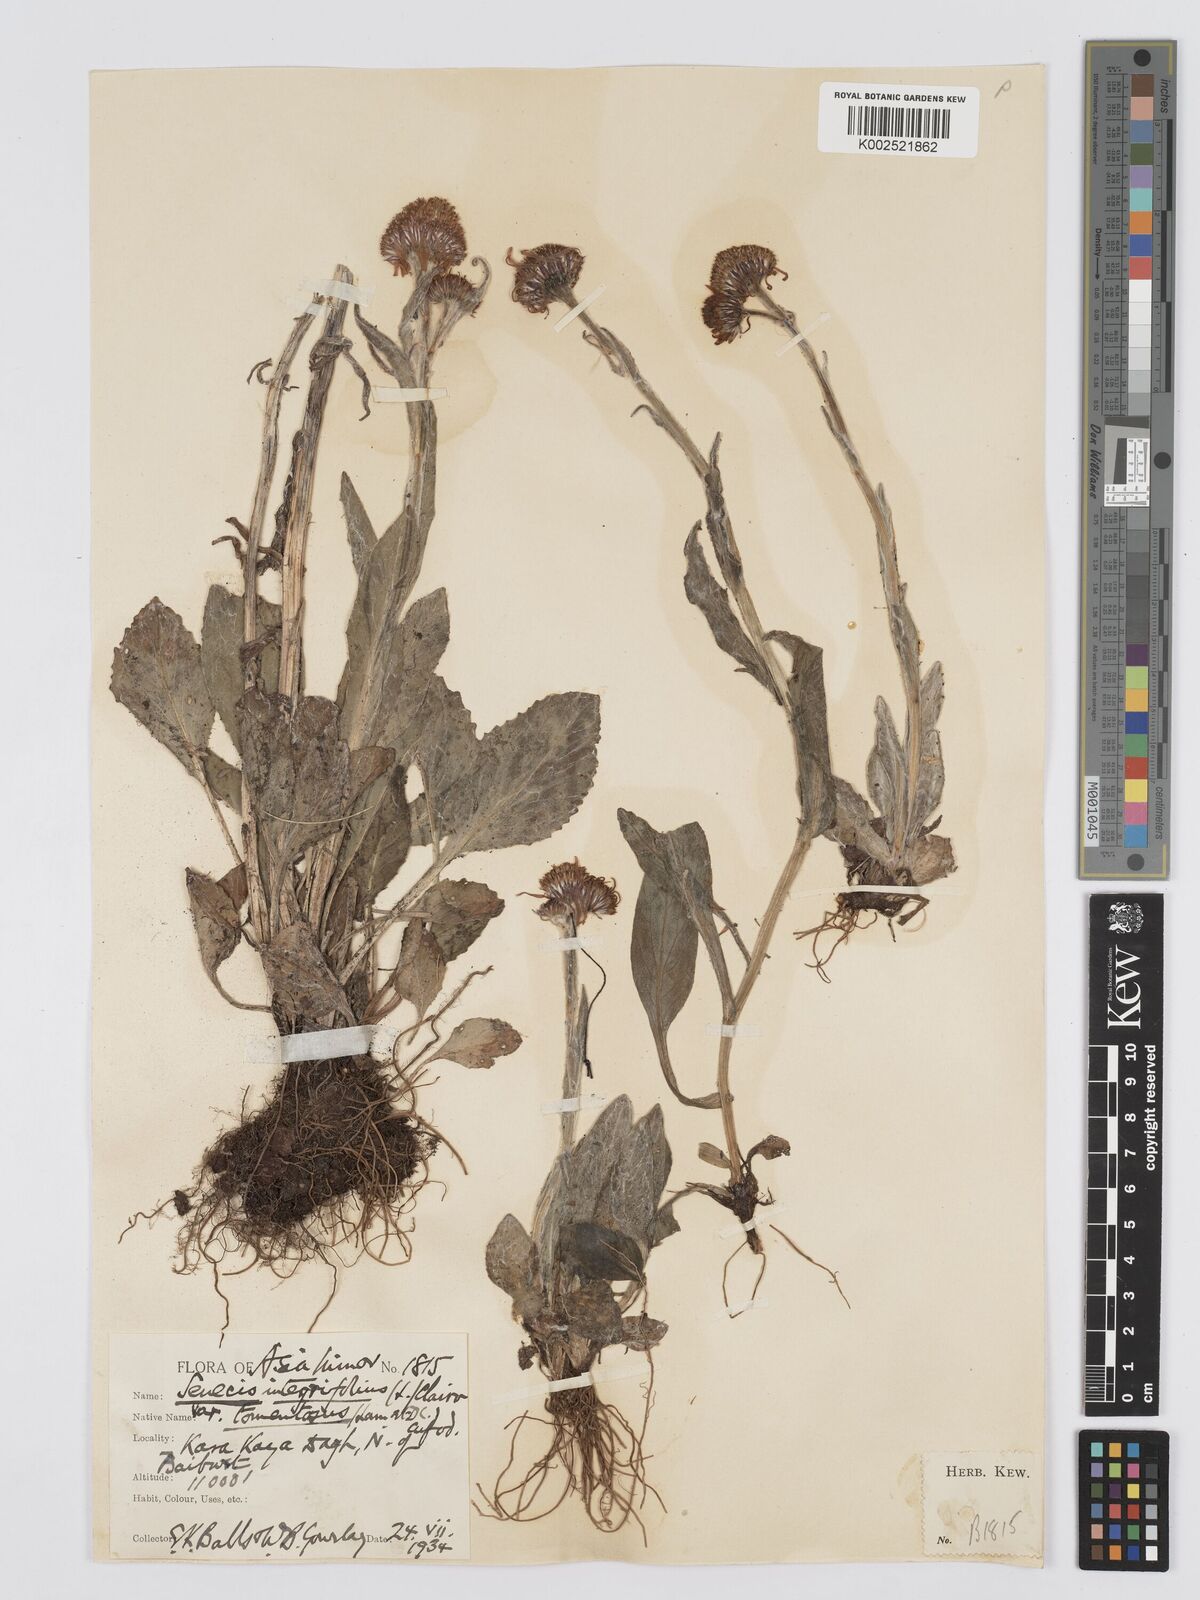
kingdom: Plantae
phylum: Tracheophyta
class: Magnoliopsida
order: Asterales
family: Asteraceae
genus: Tephroseris
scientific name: Tephroseris integrifolia
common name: Field fleawort
